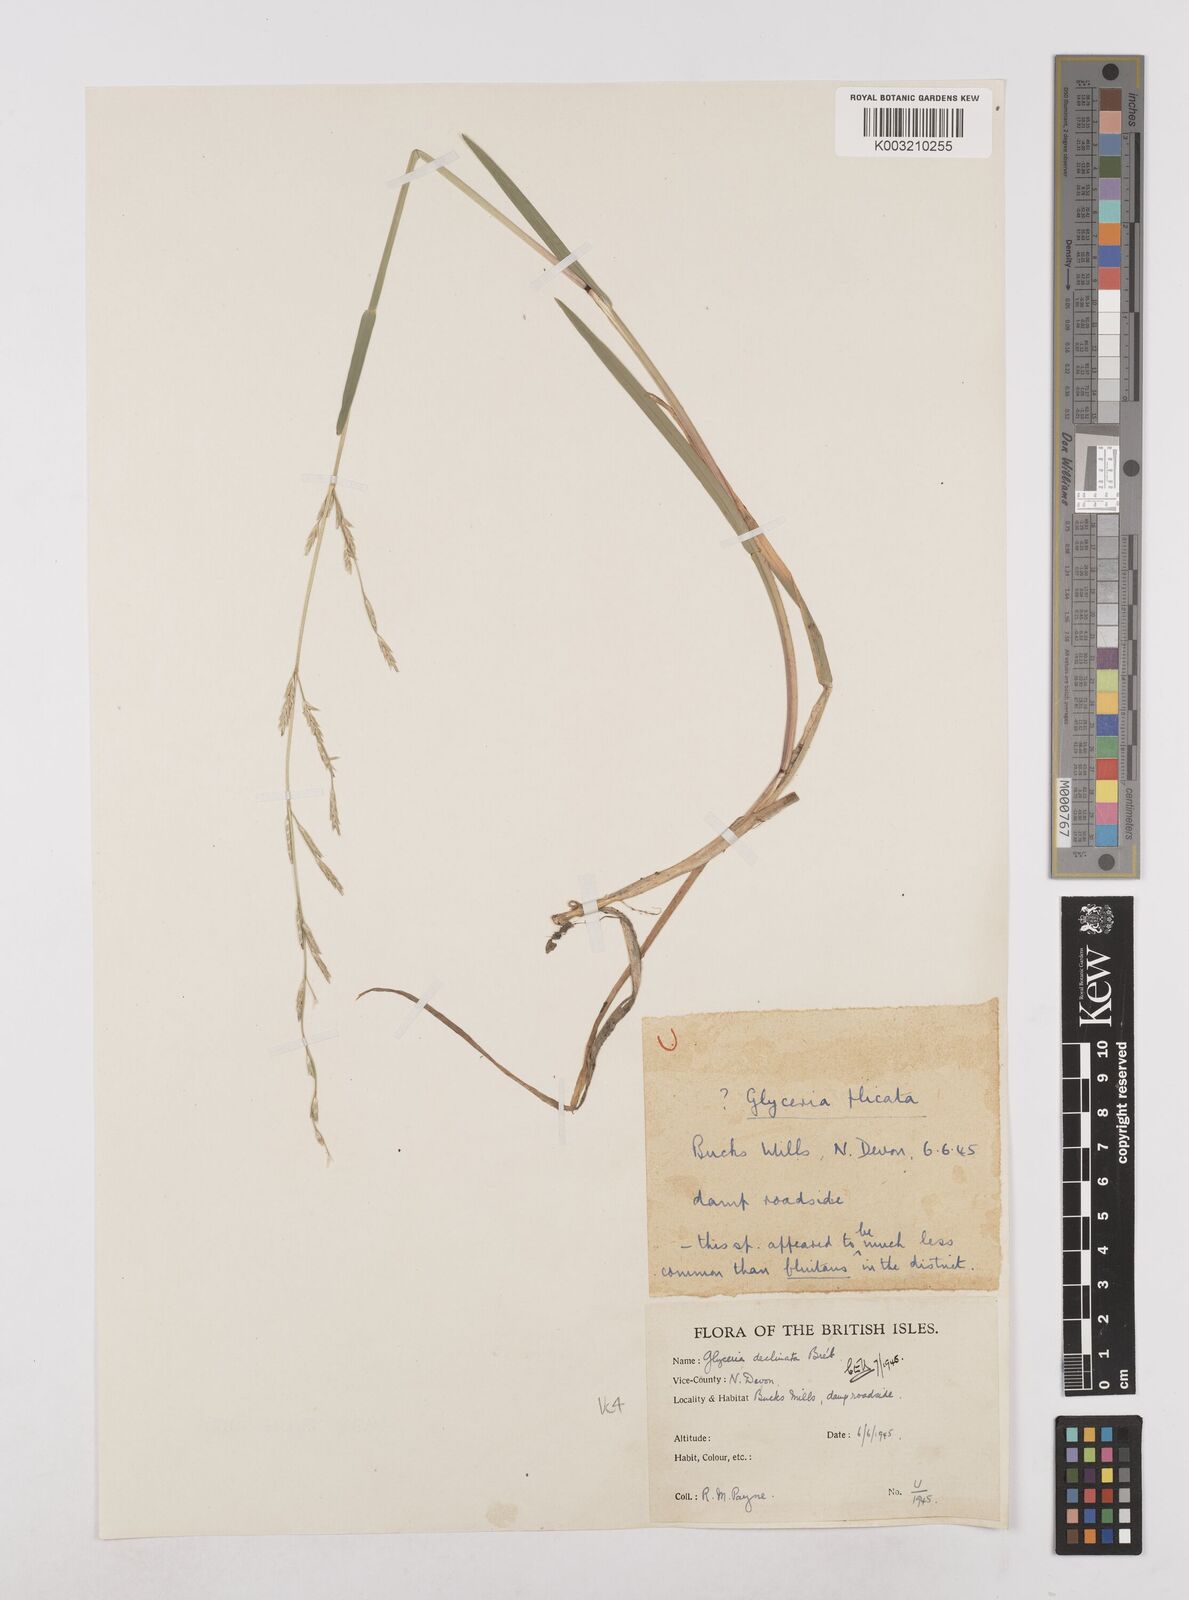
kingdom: Plantae
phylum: Tracheophyta
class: Liliopsida
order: Poales
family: Poaceae
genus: Glyceria
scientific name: Glyceria declinata
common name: Small sweet-grass
